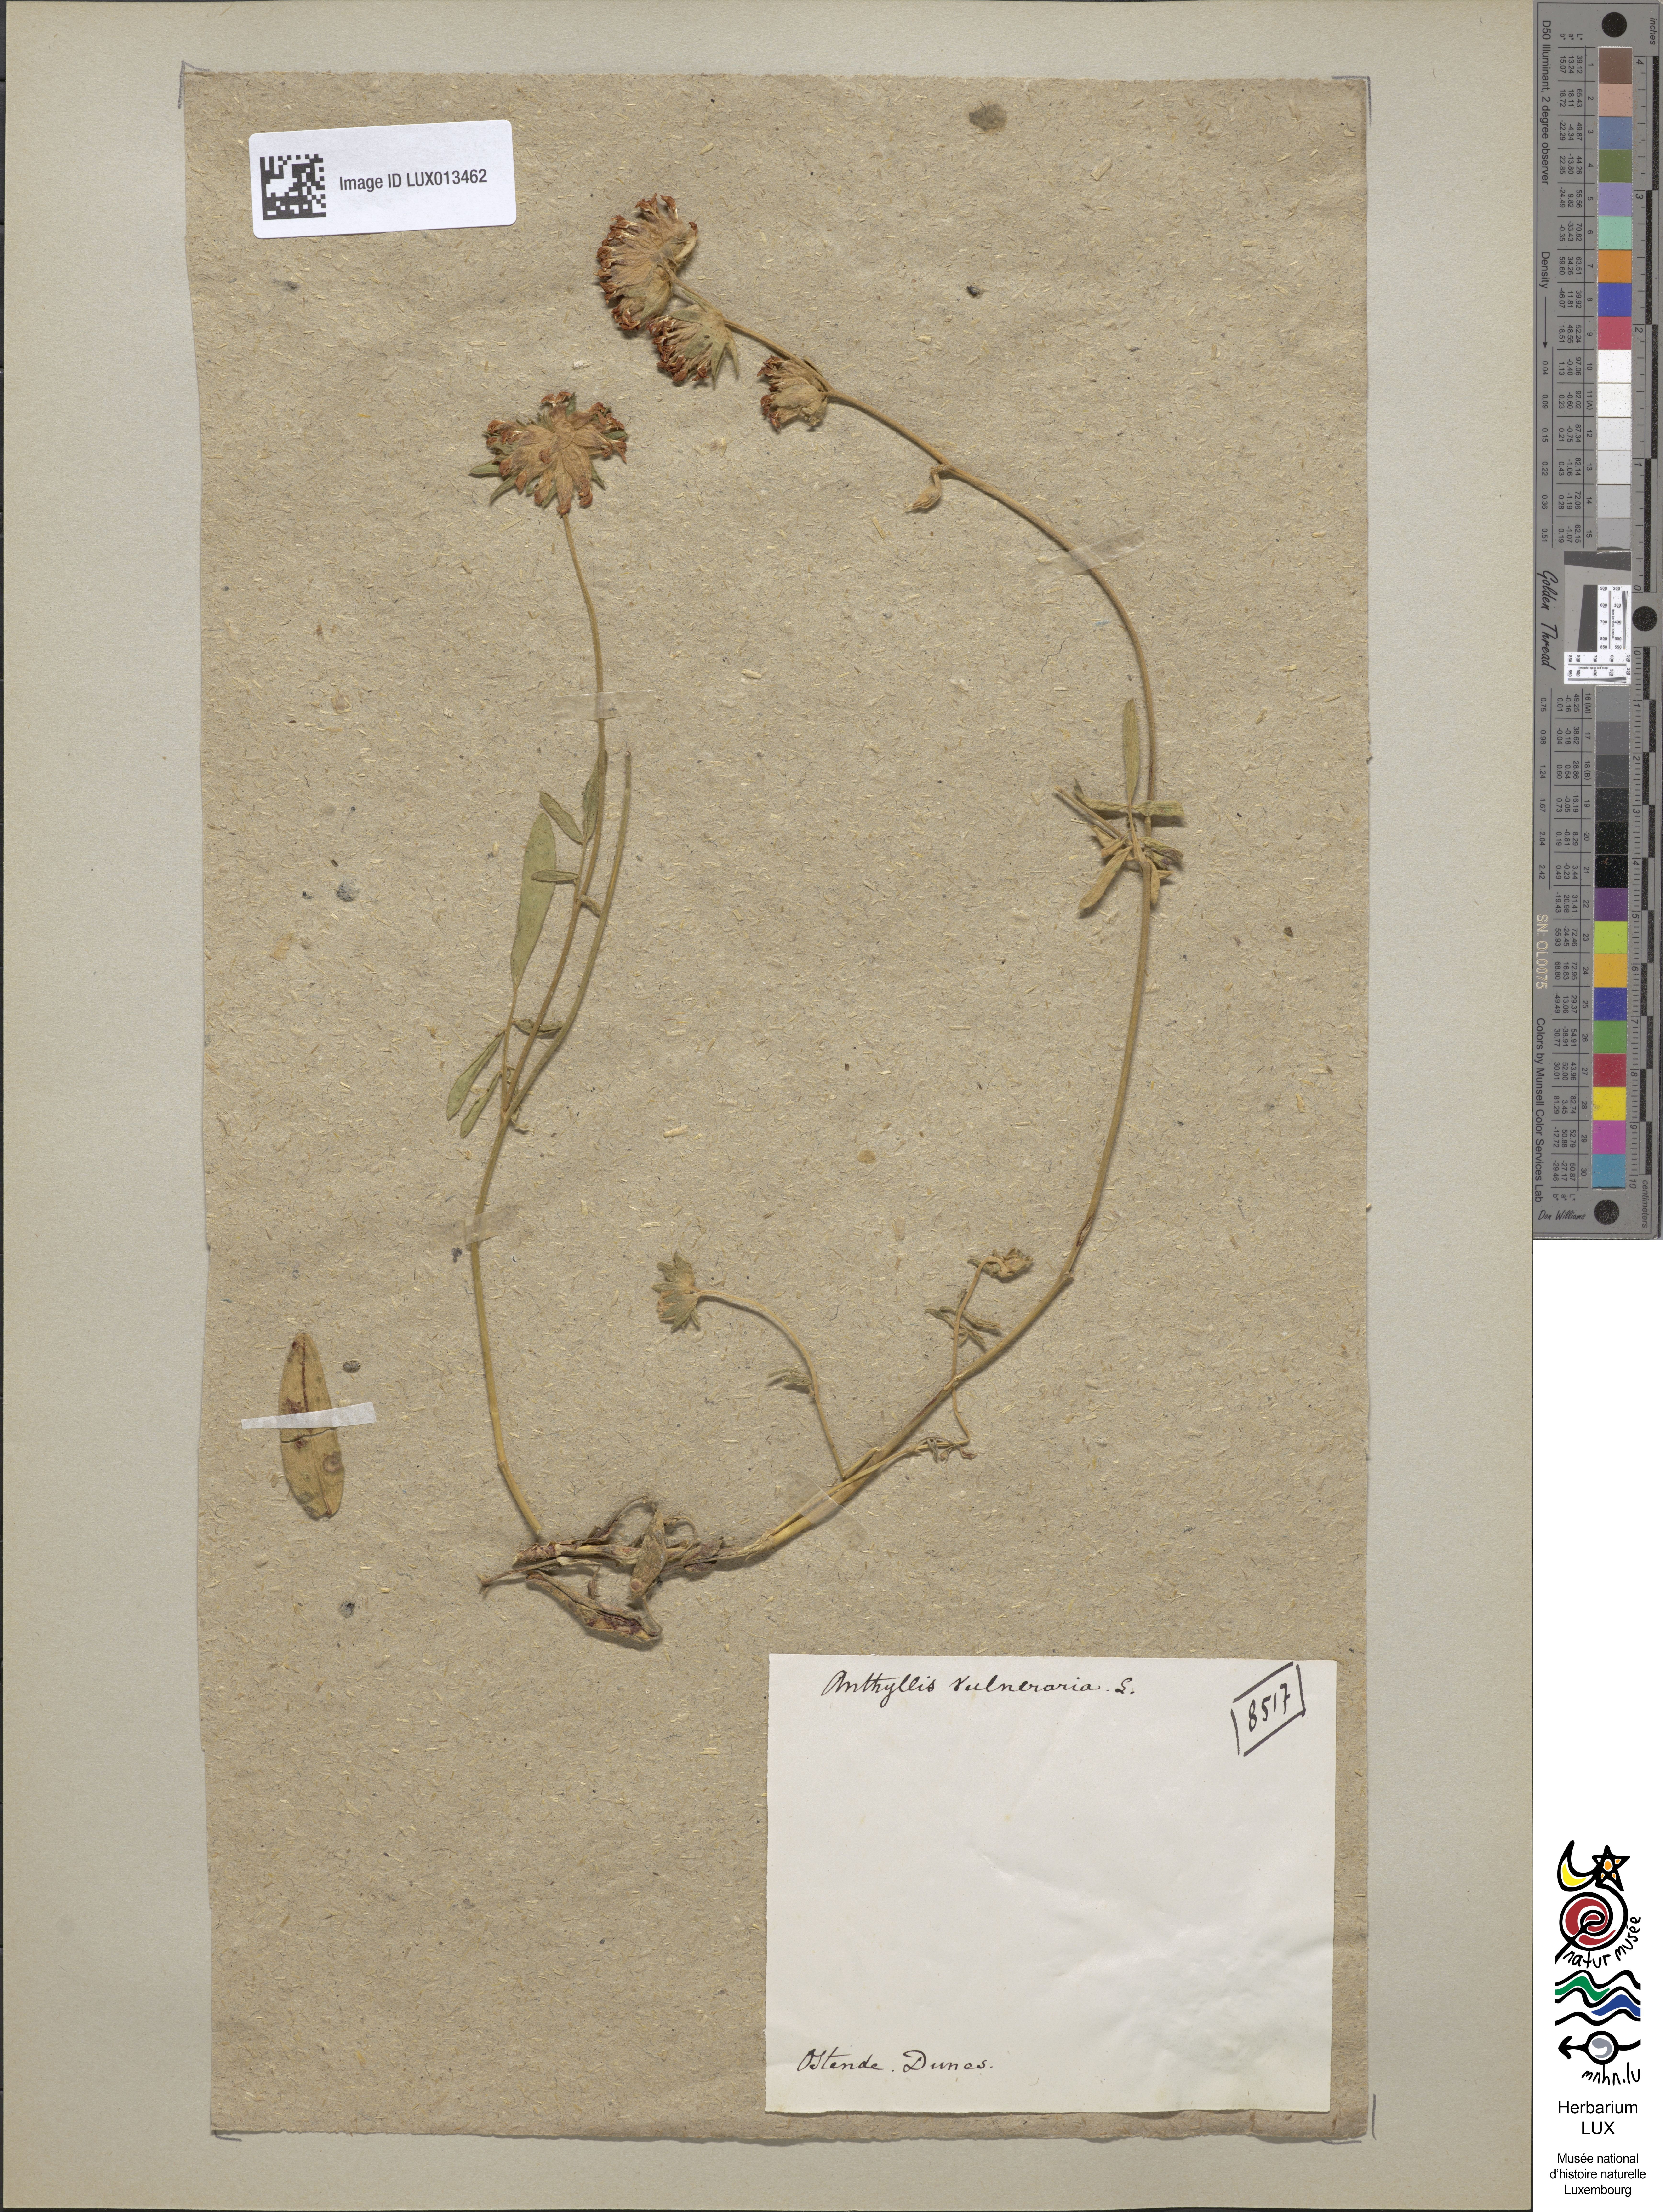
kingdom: Plantae
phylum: Tracheophyta
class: Magnoliopsida
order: Fabales
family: Fabaceae
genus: Anthyllis
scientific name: Anthyllis vulneraria
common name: Kidney vetch
